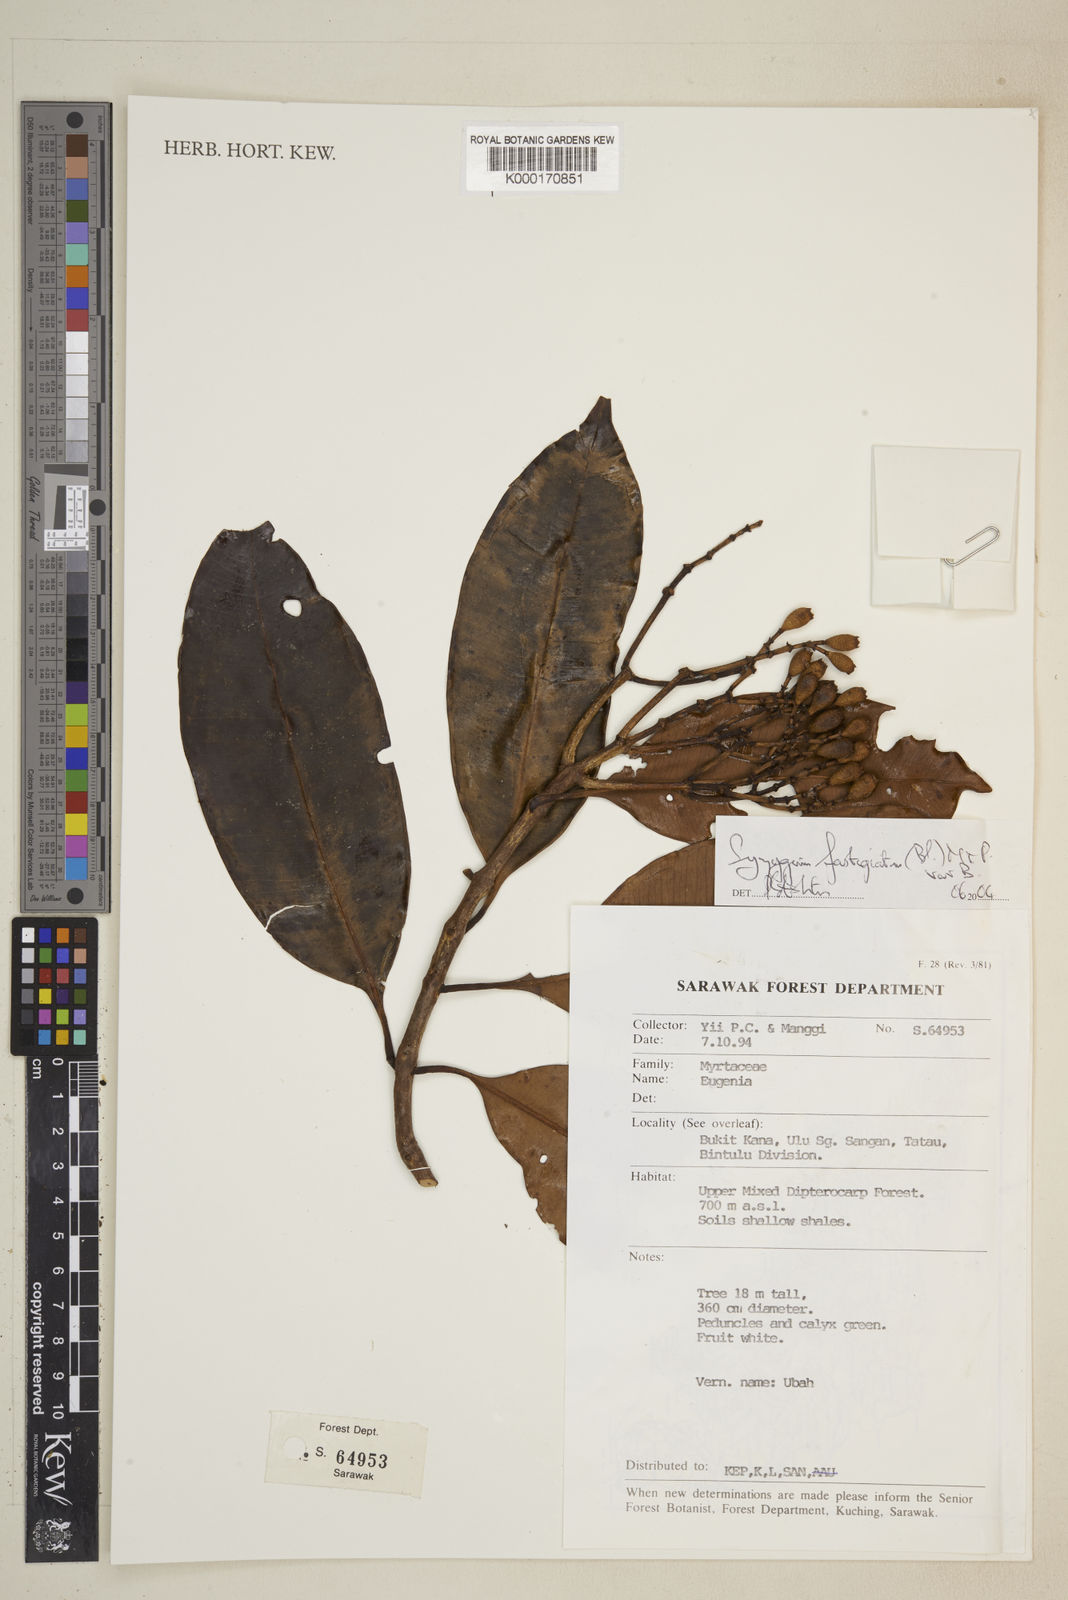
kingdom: Plantae
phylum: Tracheophyta
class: Magnoliopsida
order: Myrtales
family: Myrtaceae
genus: Syzygium
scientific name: Syzygium fastigiatum
